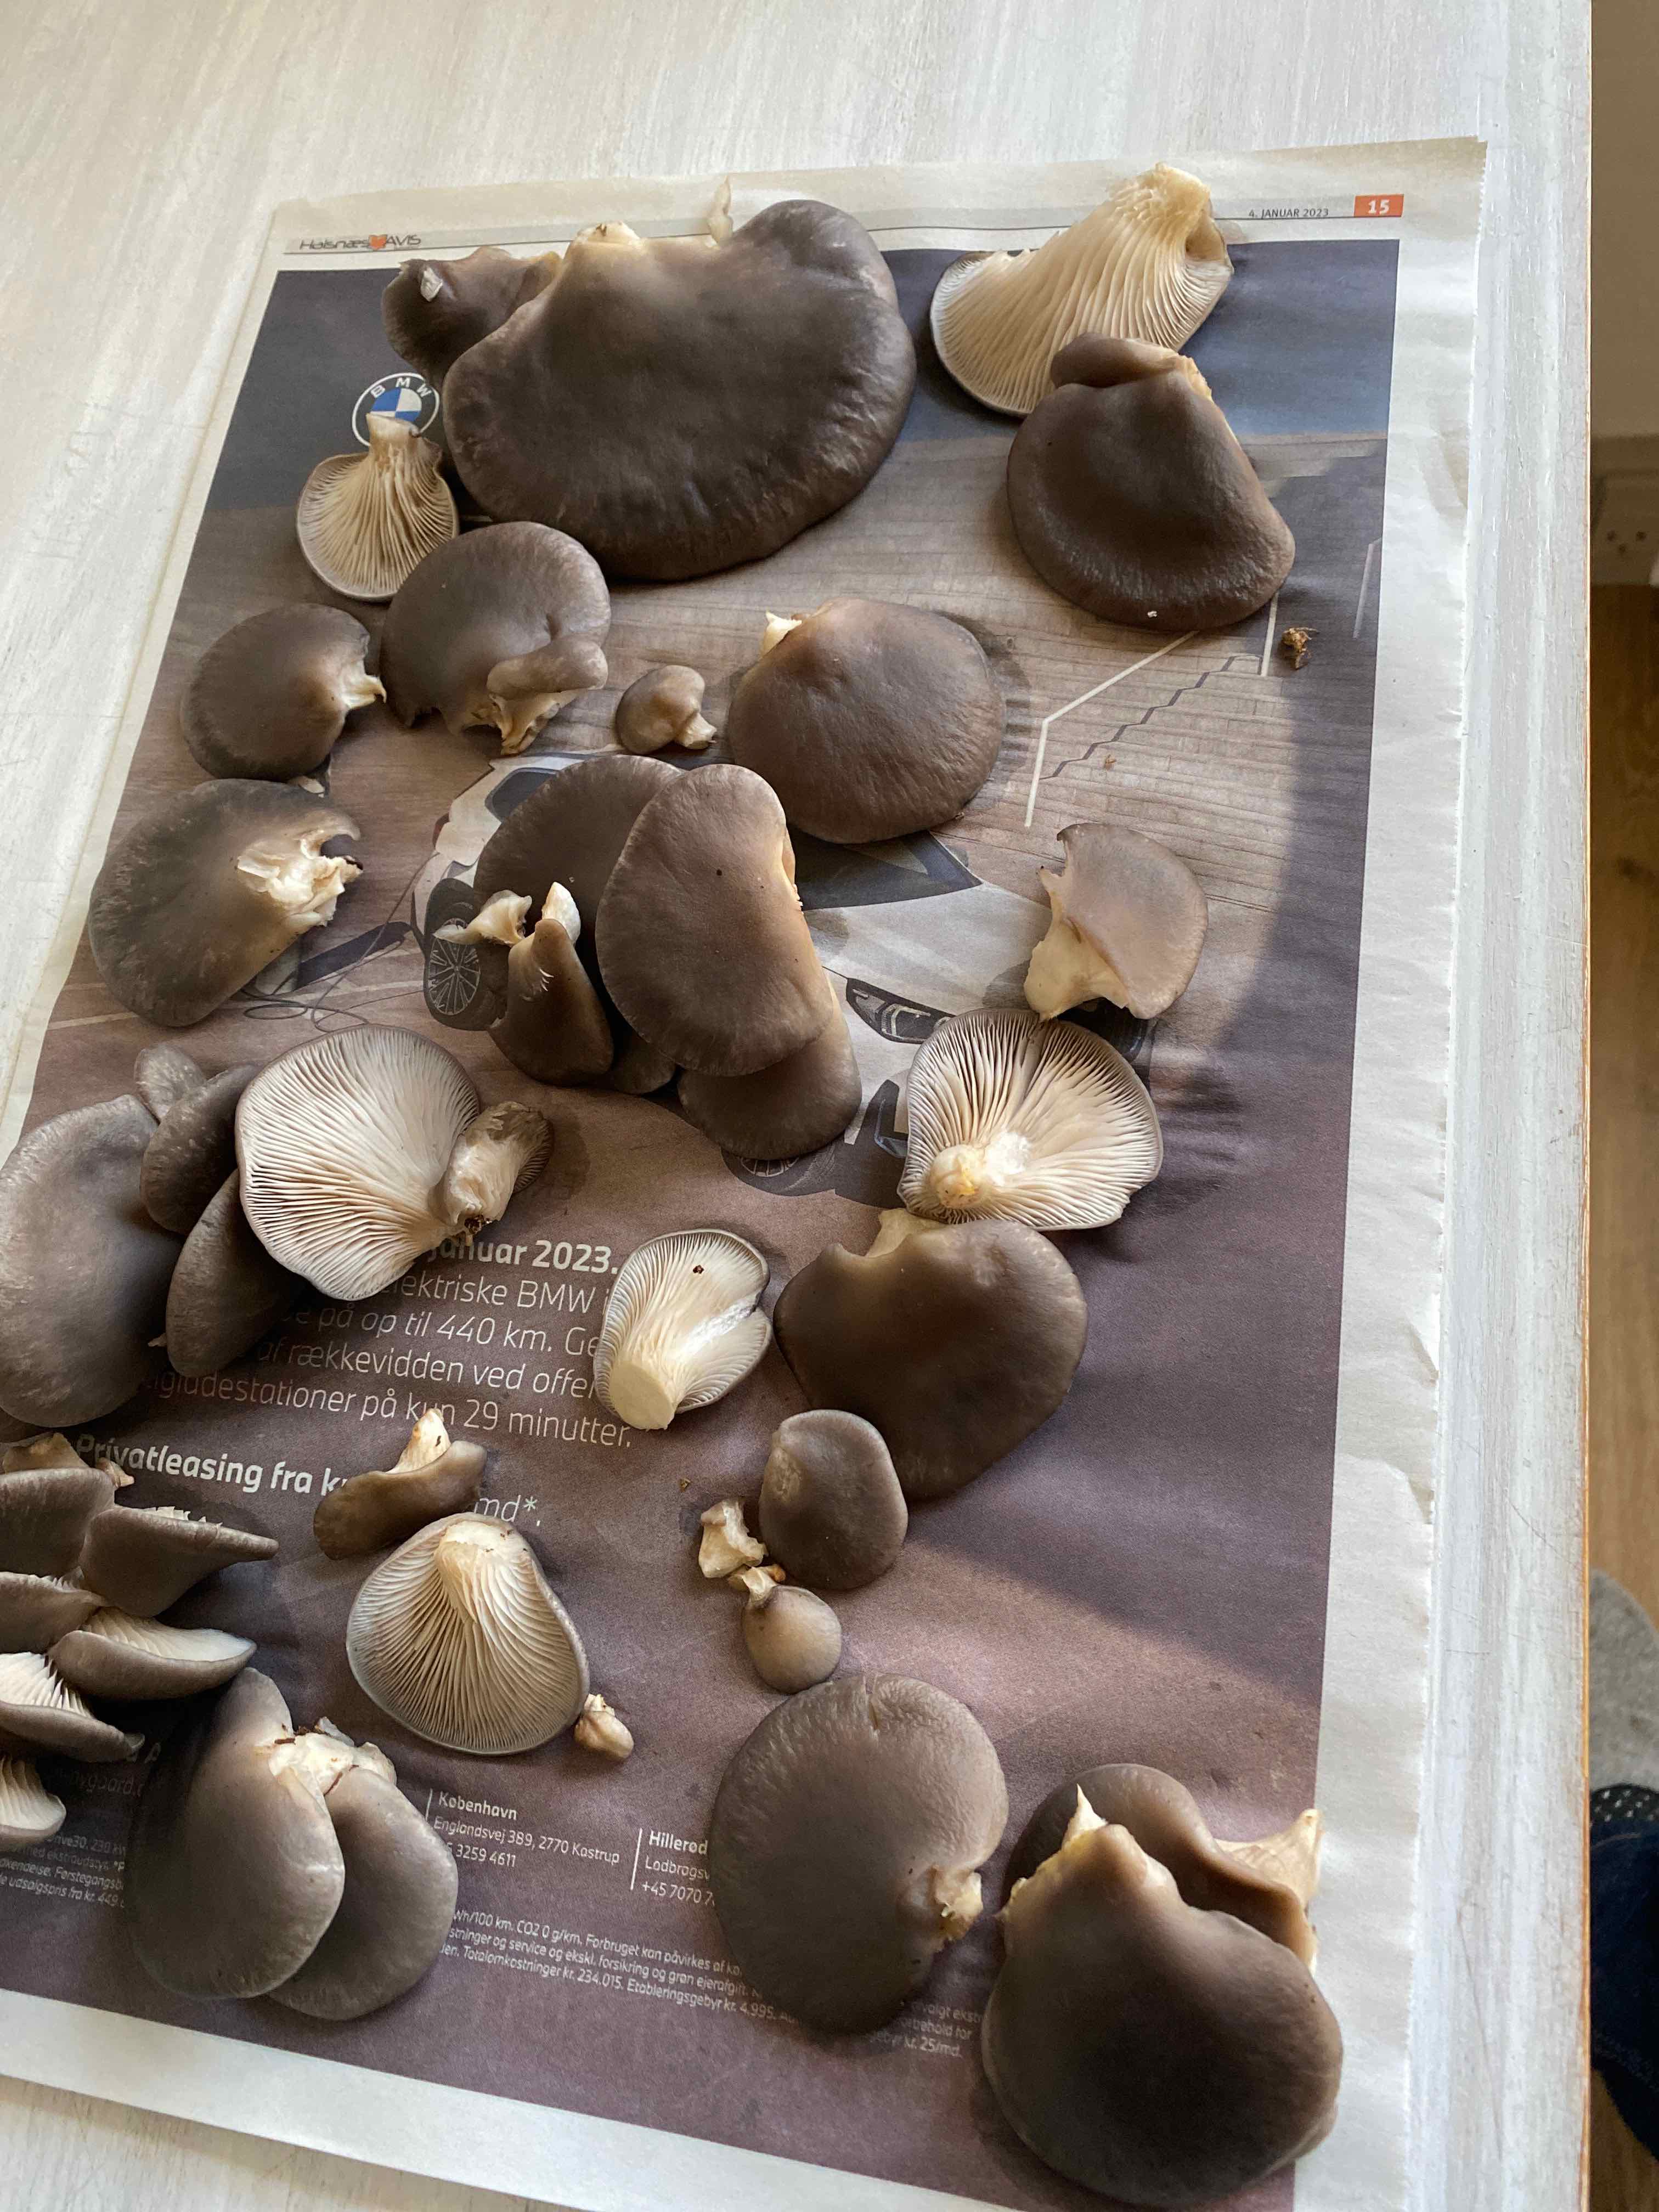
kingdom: Fungi
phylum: Basidiomycota
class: Agaricomycetes
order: Agaricales
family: Pleurotaceae
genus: Pleurotus
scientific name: Pleurotus ostreatus
